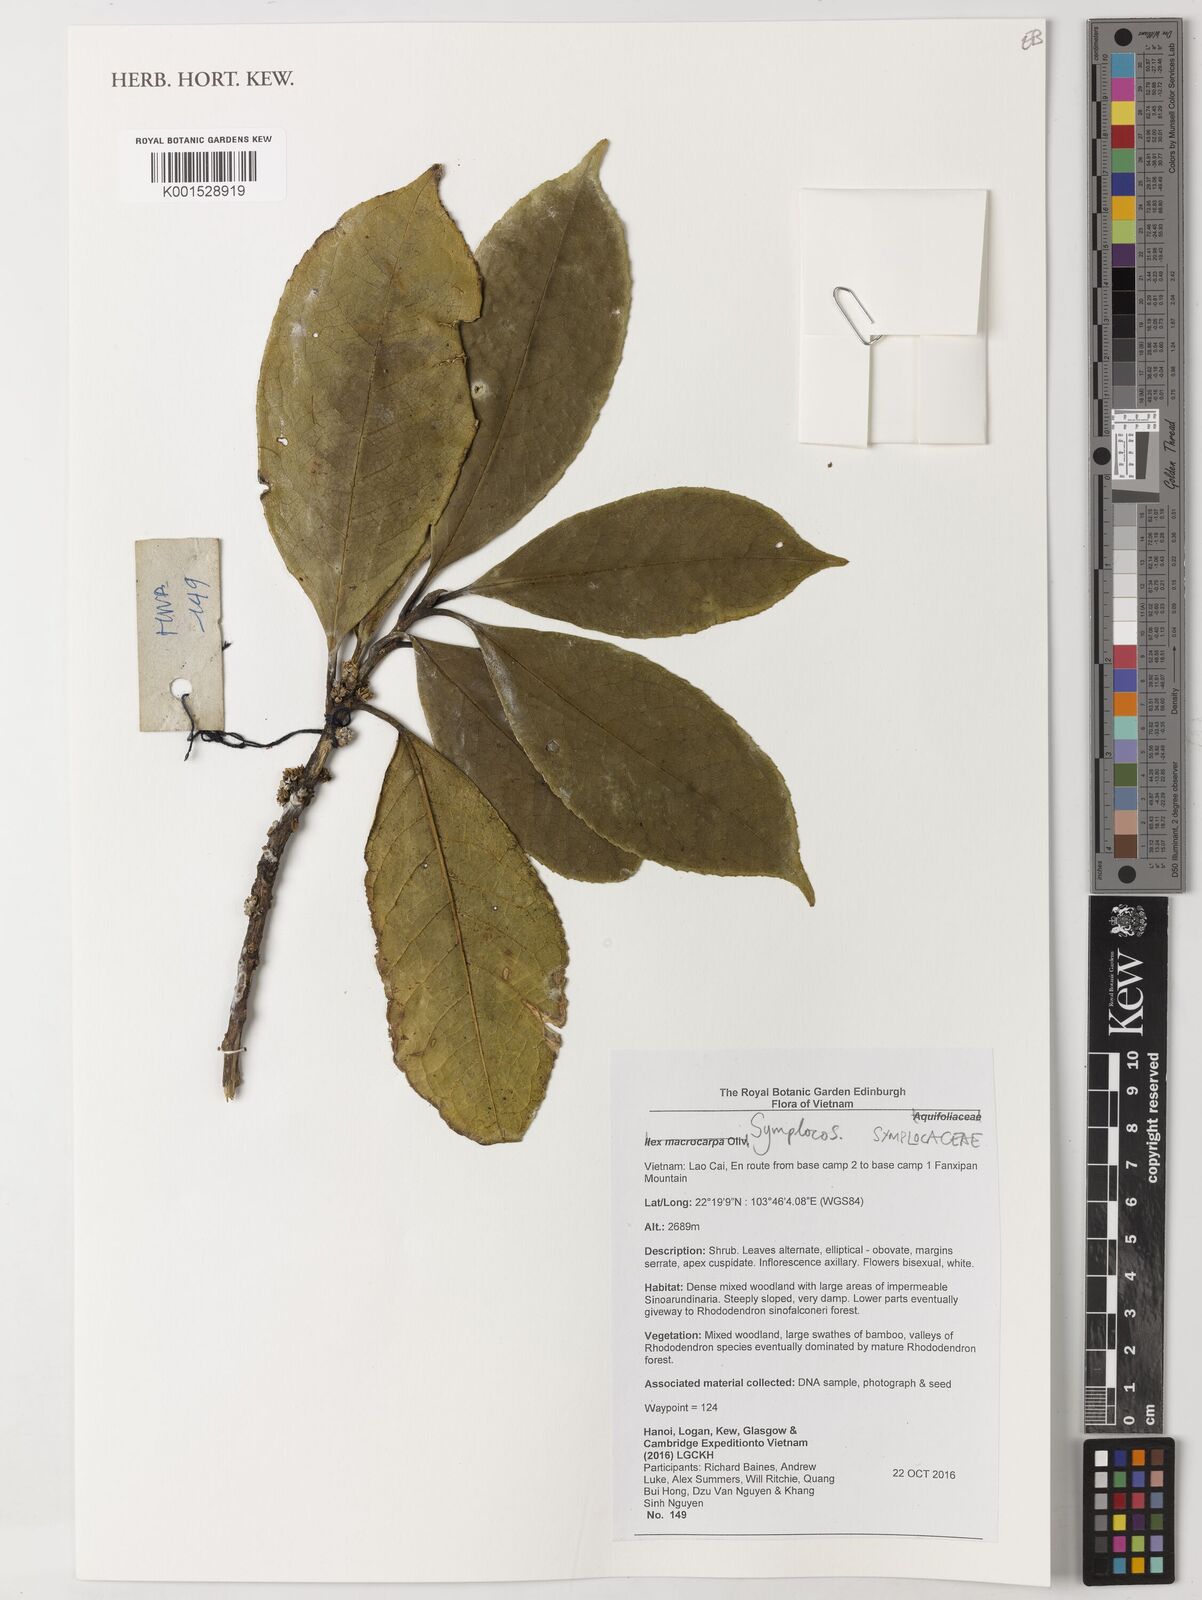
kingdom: Plantae
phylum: Tracheophyta
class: Magnoliopsida
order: Ericales
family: Symplocaceae
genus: Symplocos
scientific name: Symplocos
